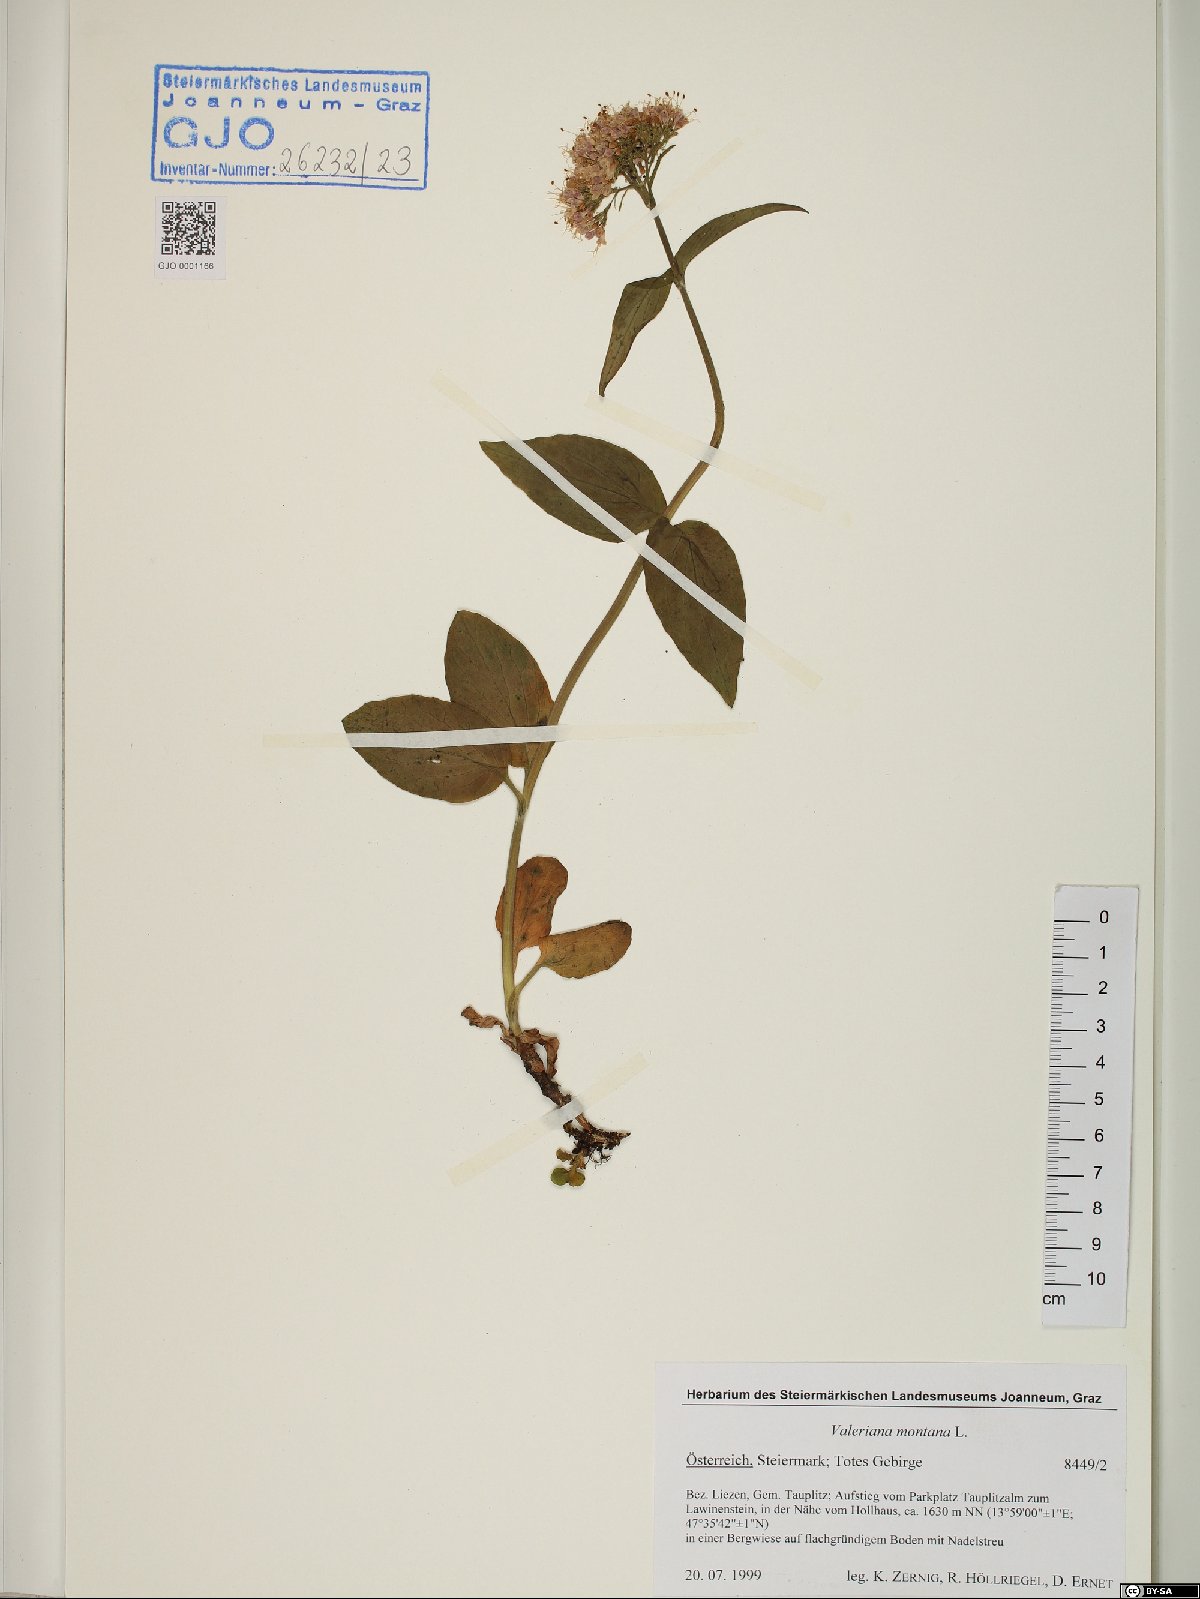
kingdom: Plantae
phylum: Tracheophyta
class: Magnoliopsida
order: Dipsacales
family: Caprifoliaceae
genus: Valeriana
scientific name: Valeriana montana
